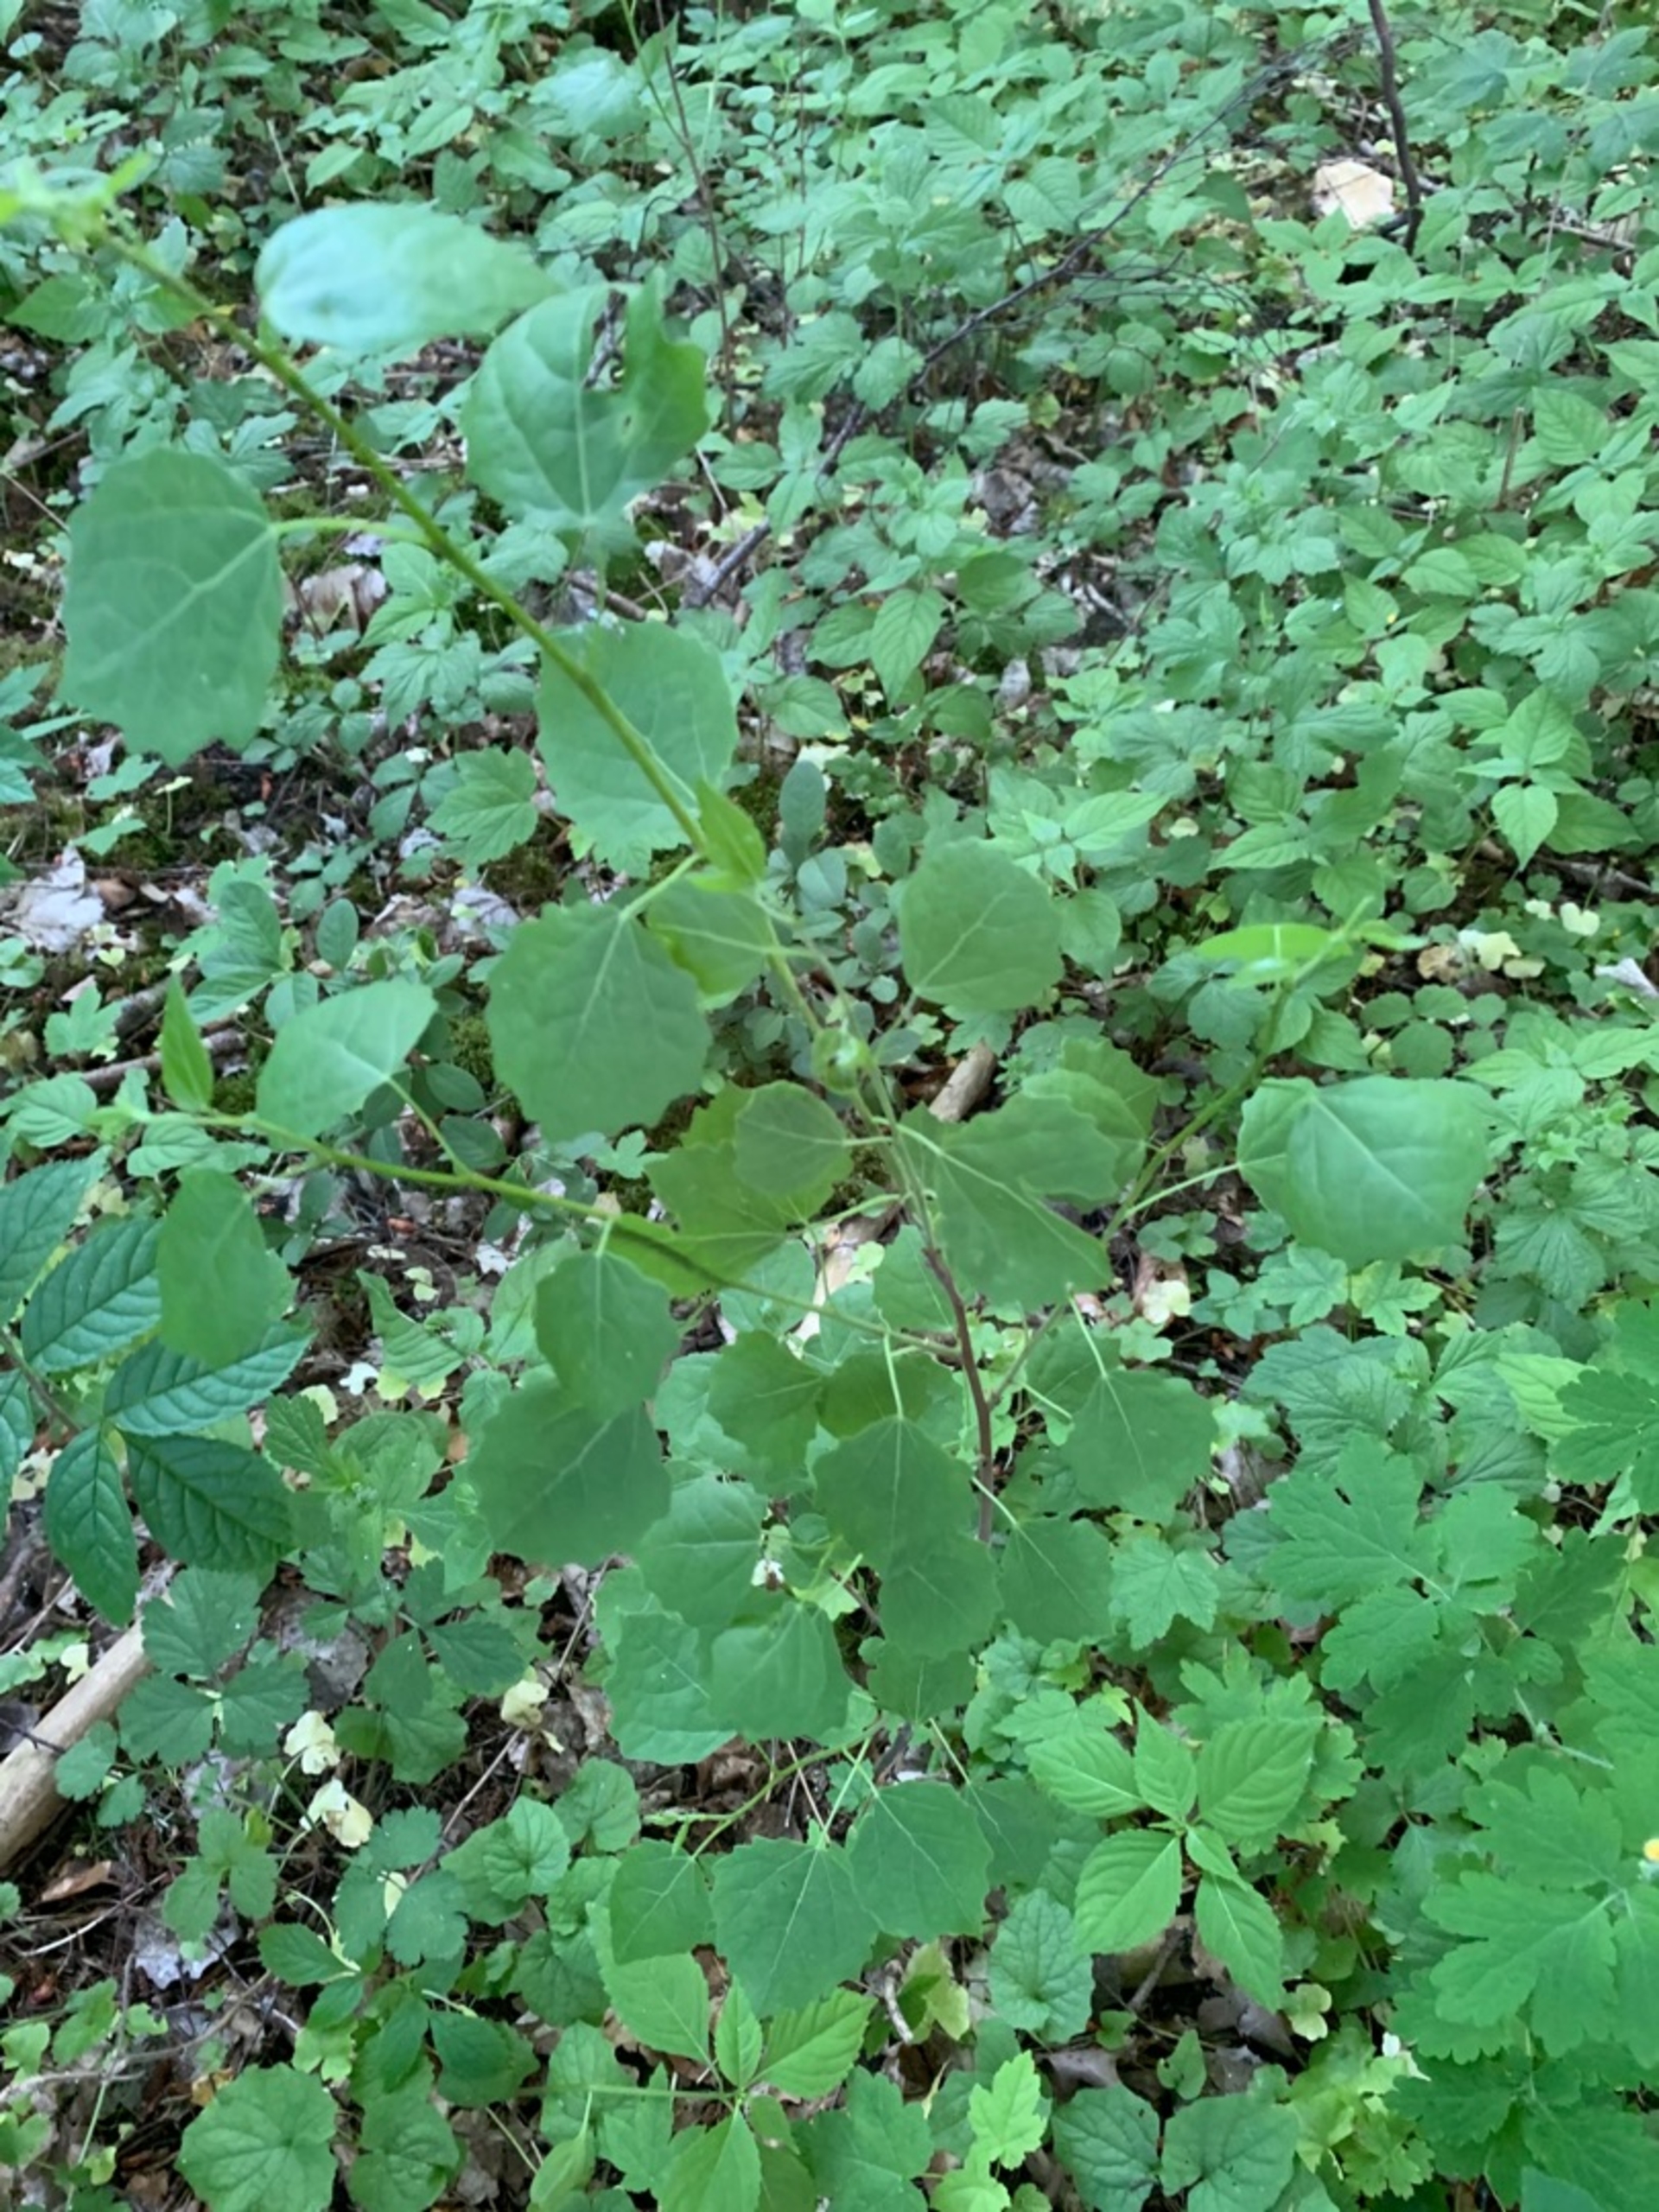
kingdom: Plantae
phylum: Tracheophyta
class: Magnoliopsida
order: Malpighiales
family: Salicaceae
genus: Populus
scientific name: Populus tremula
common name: Bævreasp
